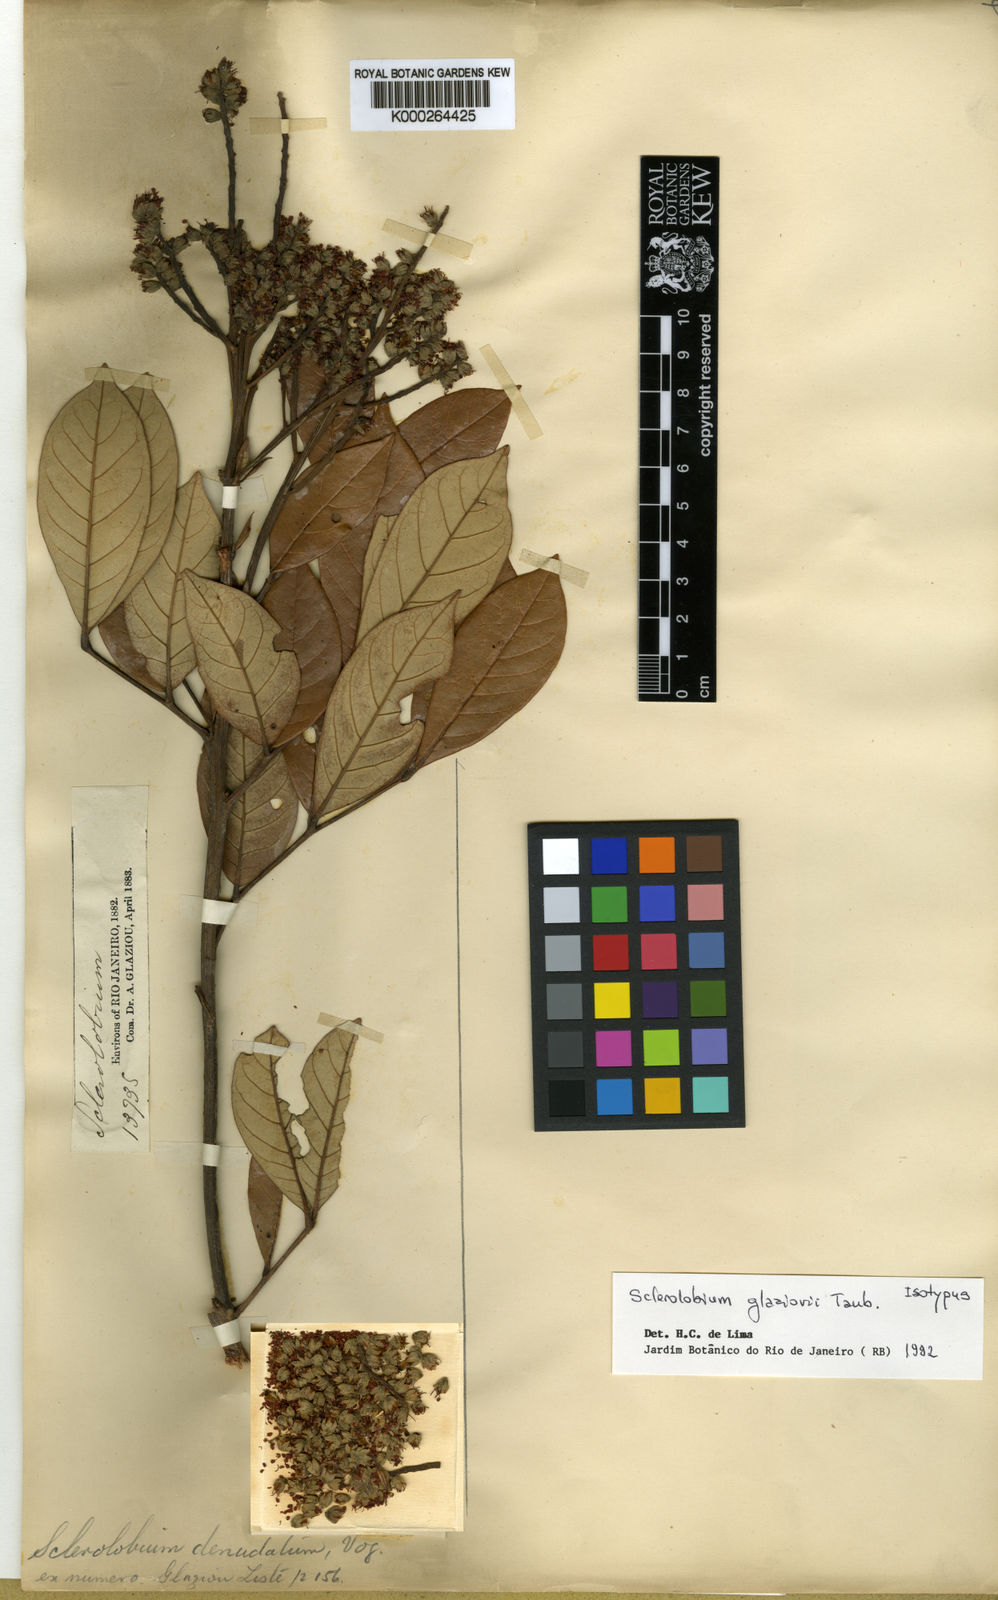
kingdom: Plantae
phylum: Tracheophyta
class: Magnoliopsida
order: Fabales
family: Fabaceae
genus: Tachigali
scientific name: Tachigali denudata
